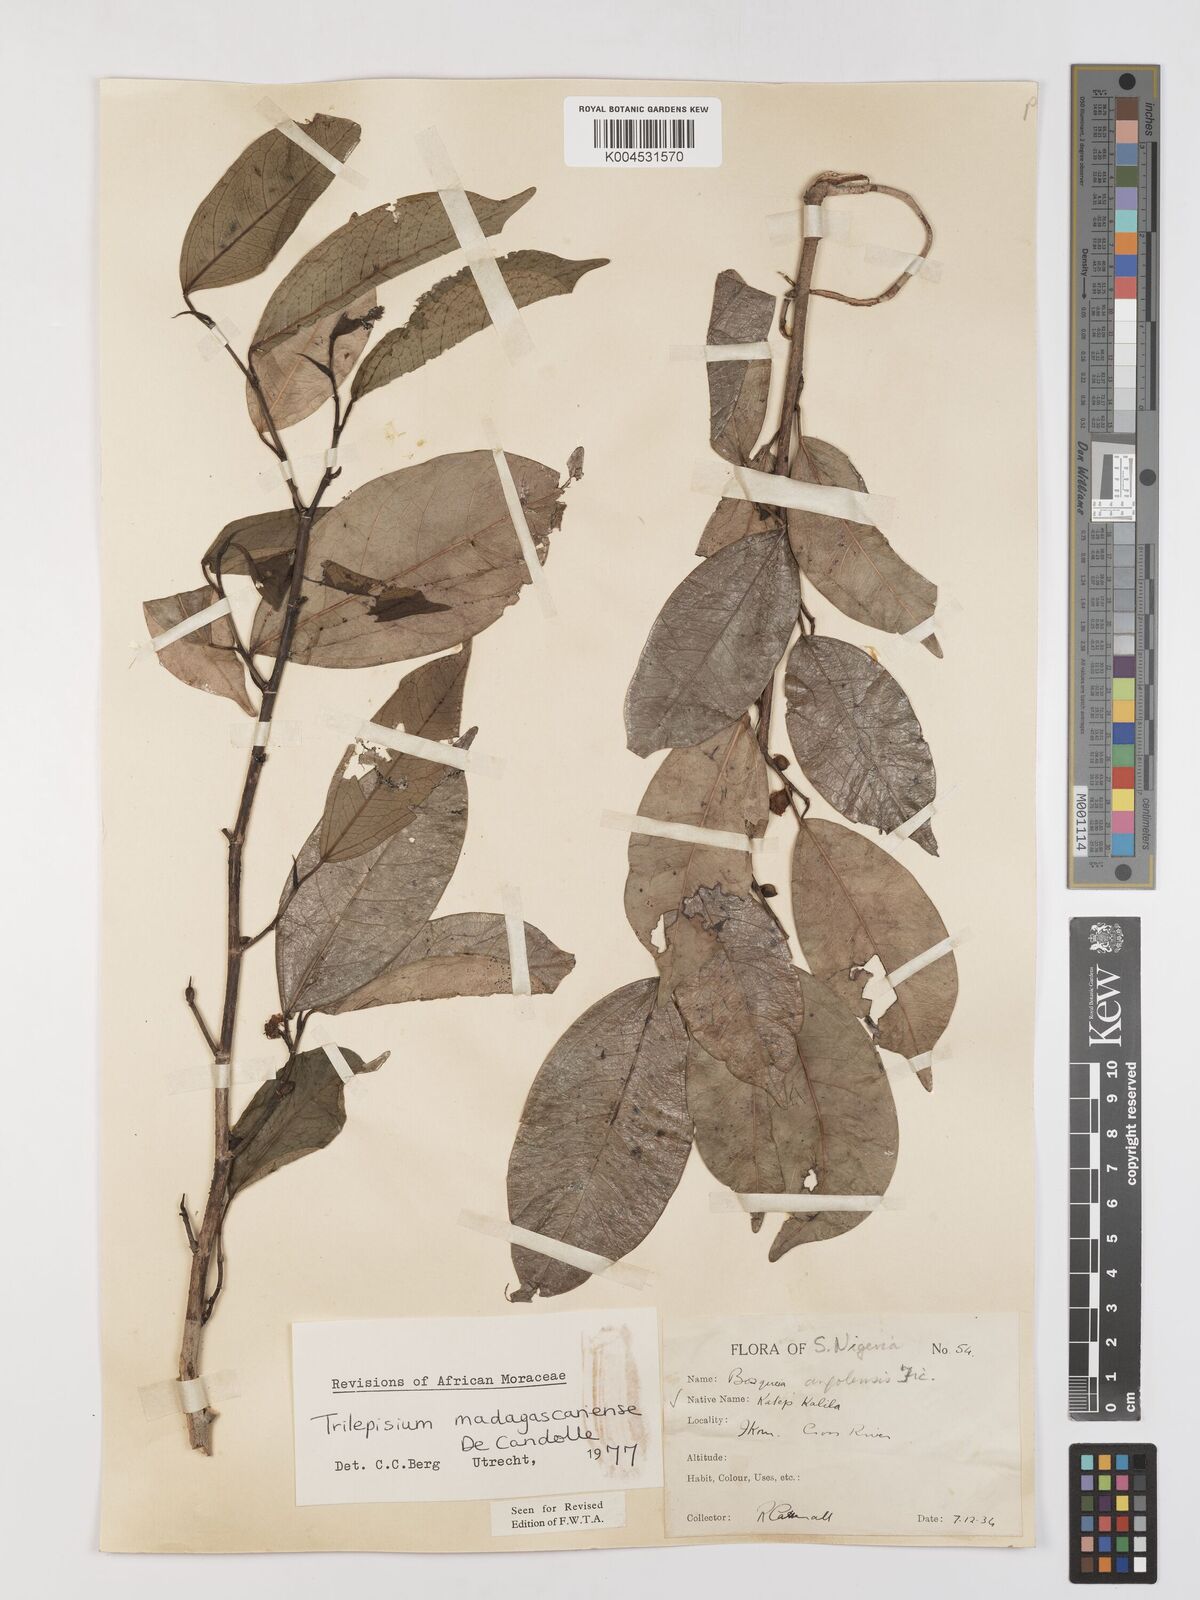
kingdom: Plantae
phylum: Tracheophyta
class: Magnoliopsida
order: Rosales
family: Moraceae
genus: Trilepisium
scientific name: Trilepisium madagascariense
